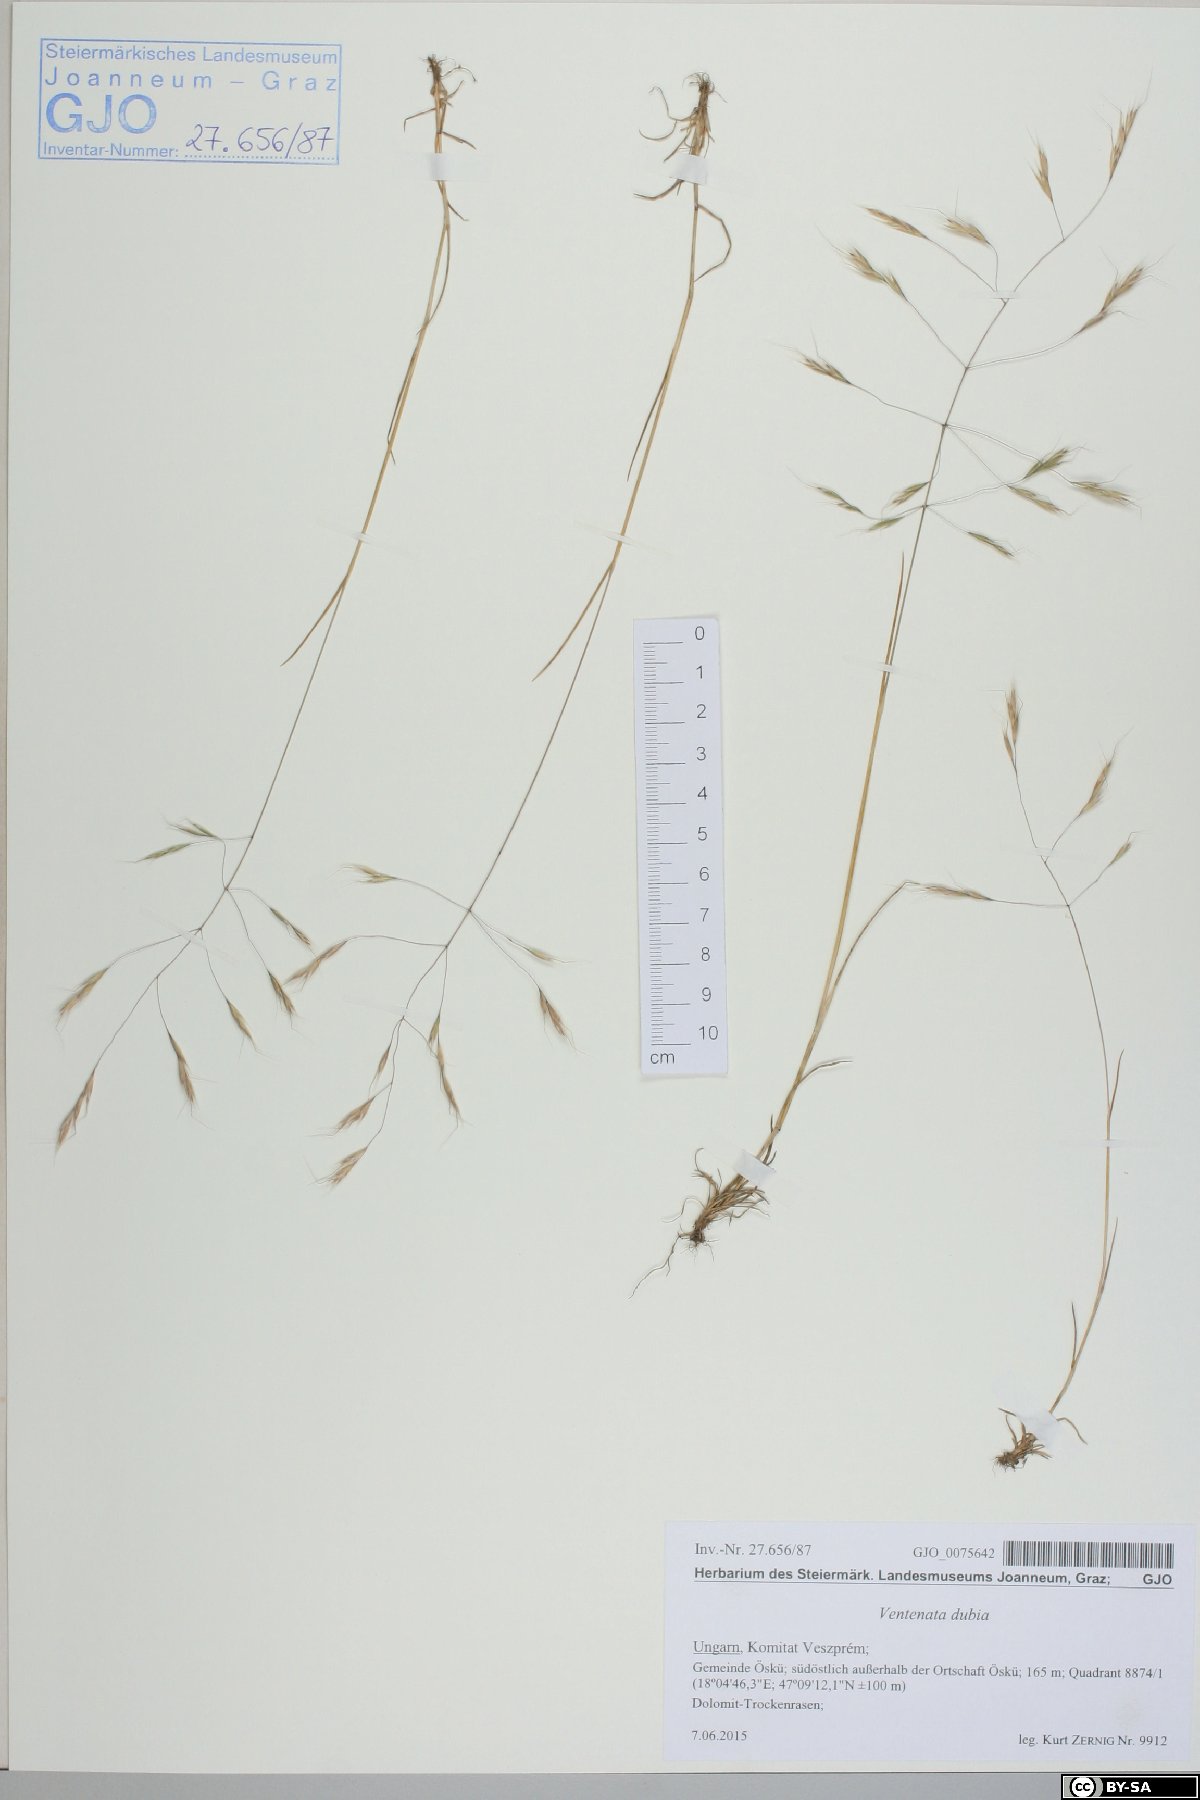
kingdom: Plantae
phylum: Tracheophyta
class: Liliopsida
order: Poales
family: Poaceae
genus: Ventenata
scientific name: Ventenata dubia
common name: North africa grass
